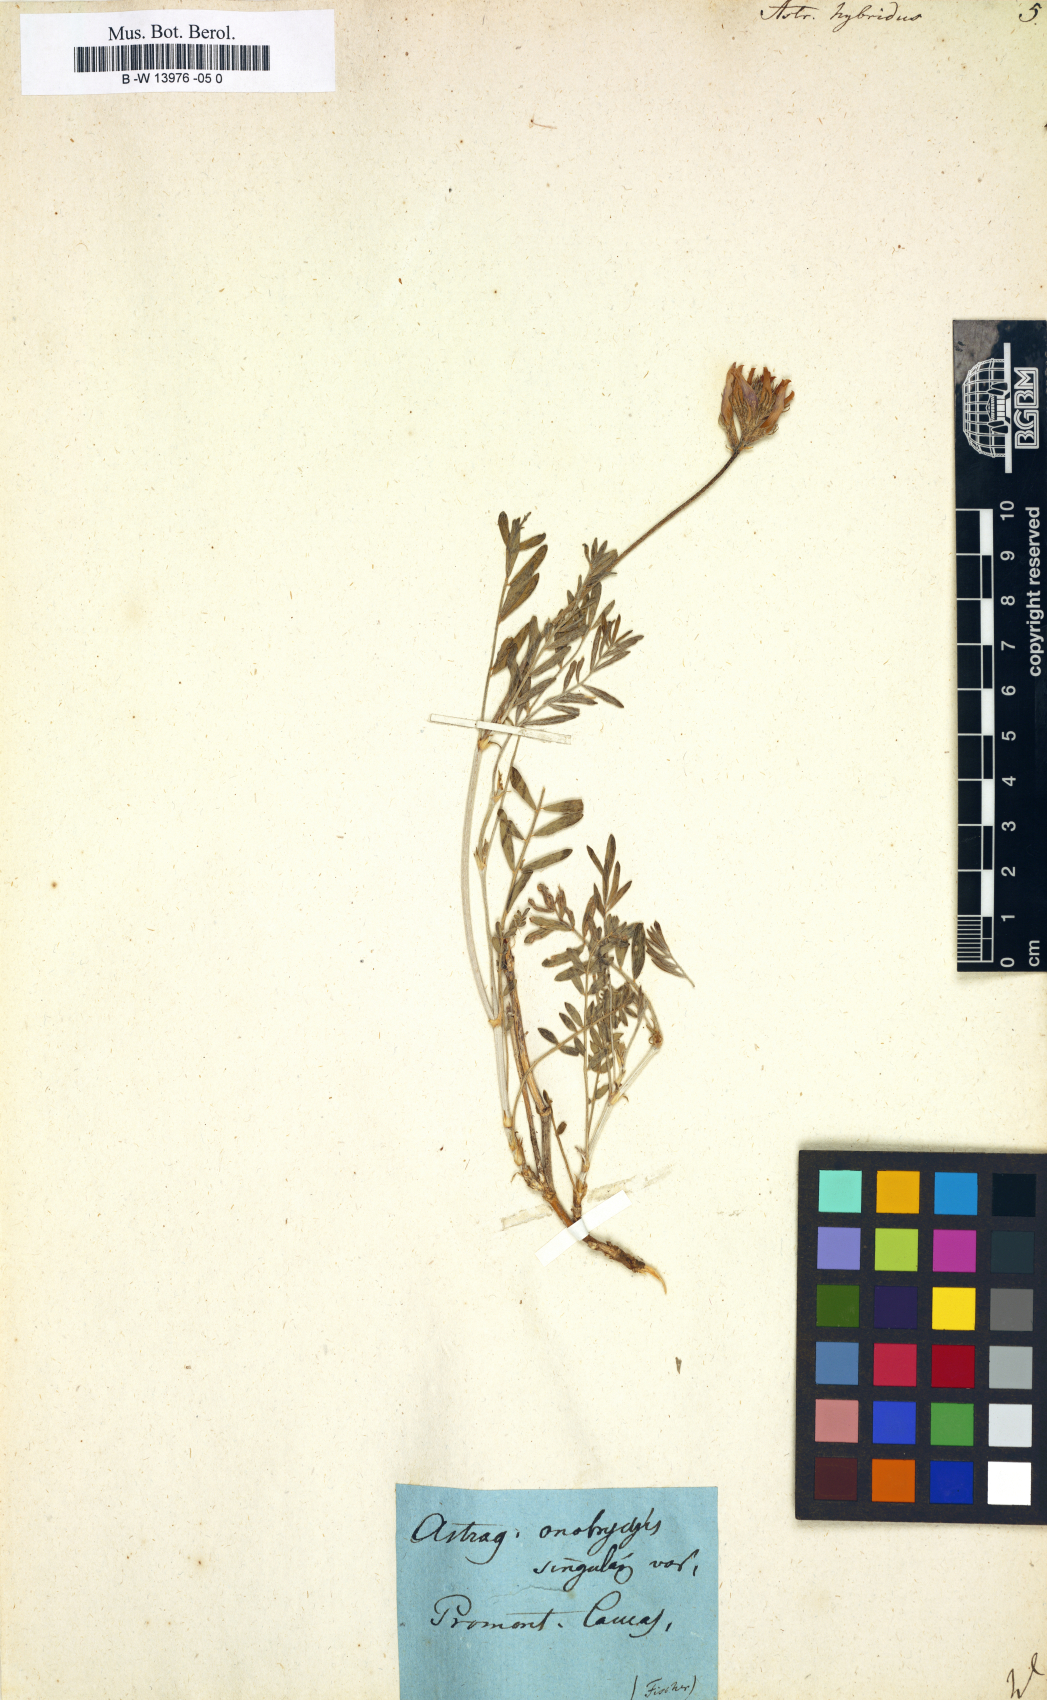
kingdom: Plantae
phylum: Tracheophyta
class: Magnoliopsida
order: Fabales
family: Fabaceae
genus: Astragalus
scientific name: Astragalus onobrychis
